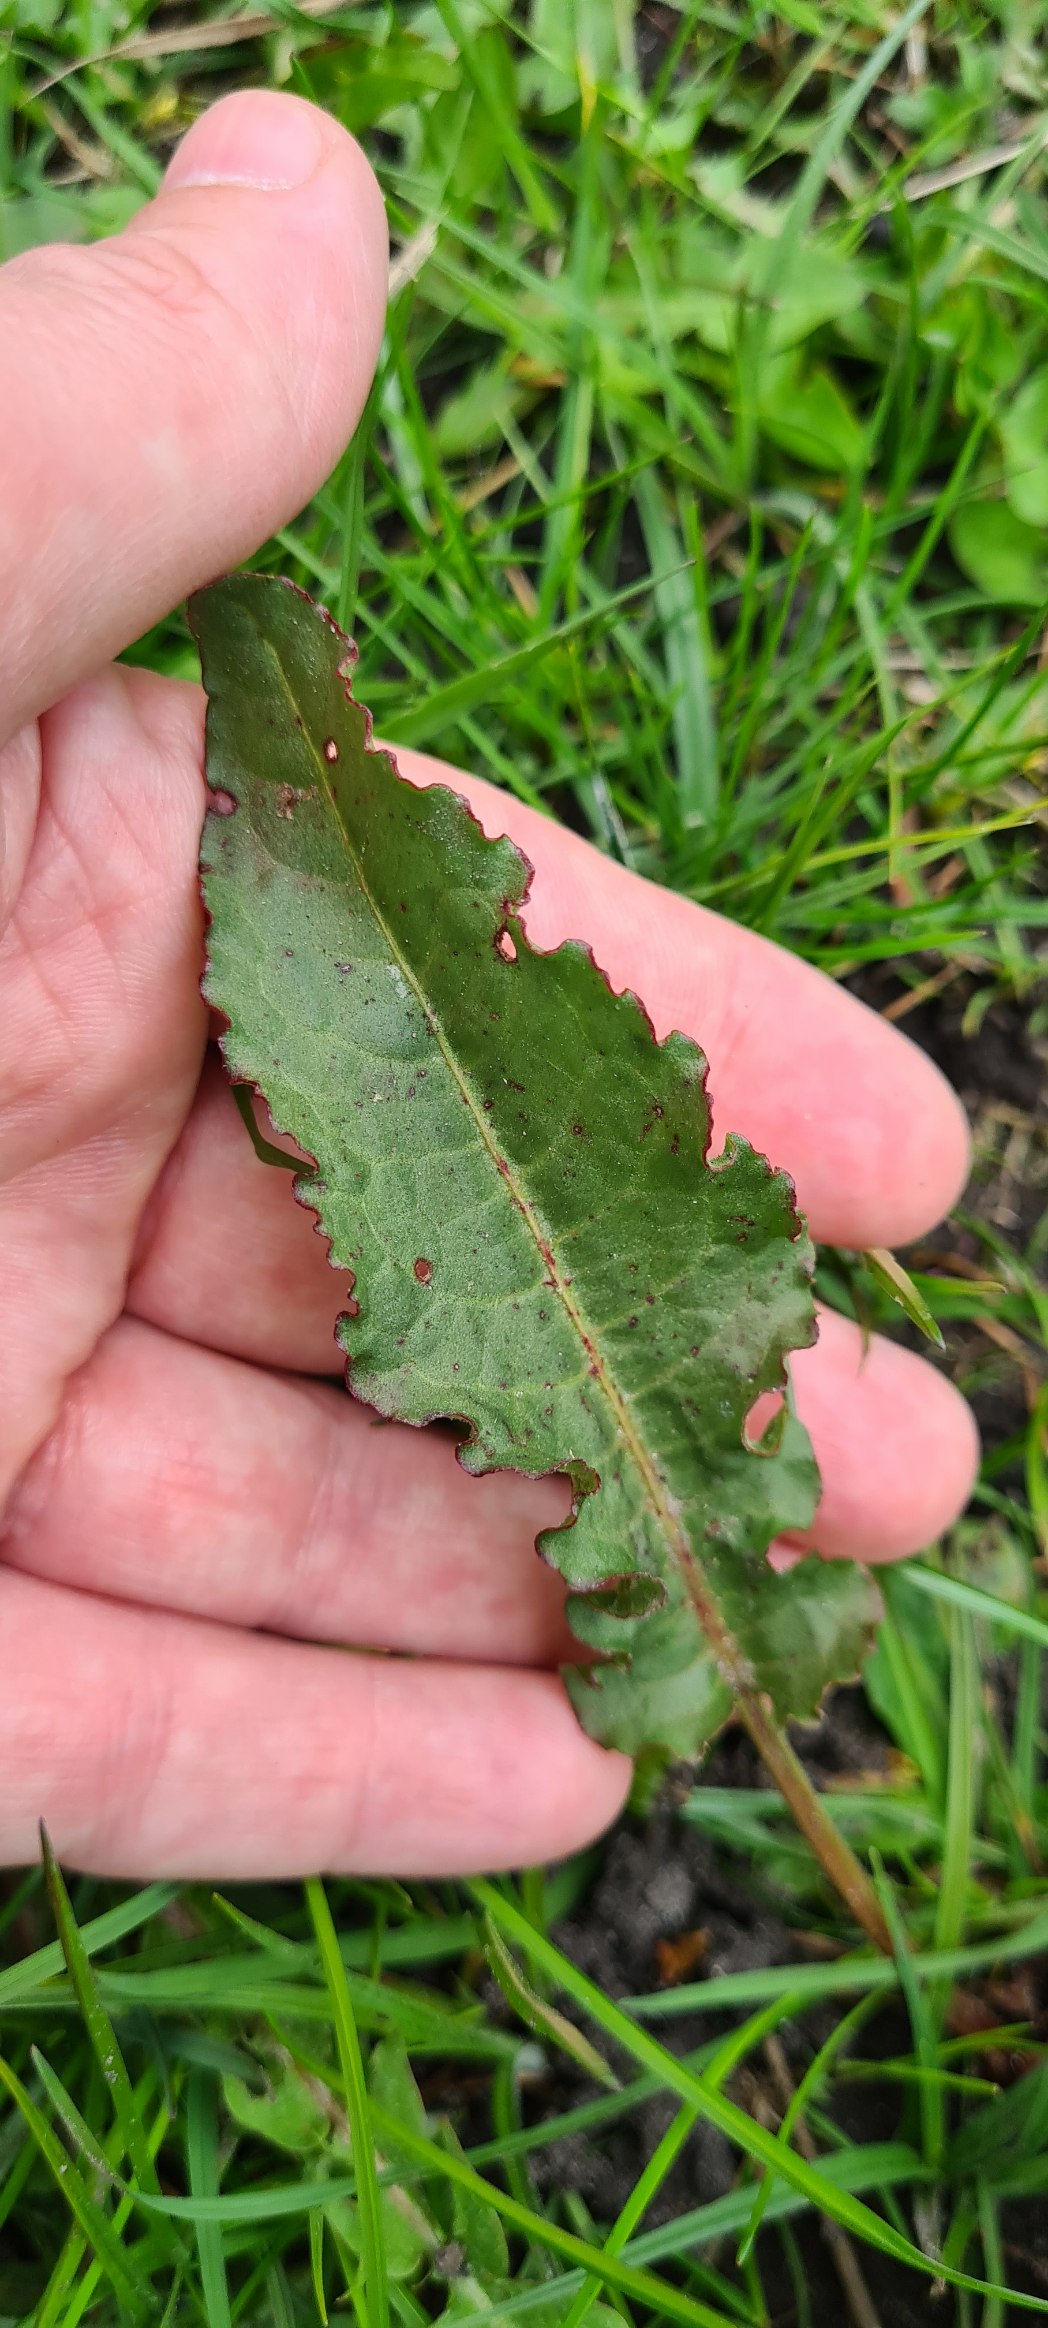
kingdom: Plantae
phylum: Tracheophyta
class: Magnoliopsida
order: Caryophyllales
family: Polygonaceae
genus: Rumex
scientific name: Rumex crispus
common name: Kruset skræppe
